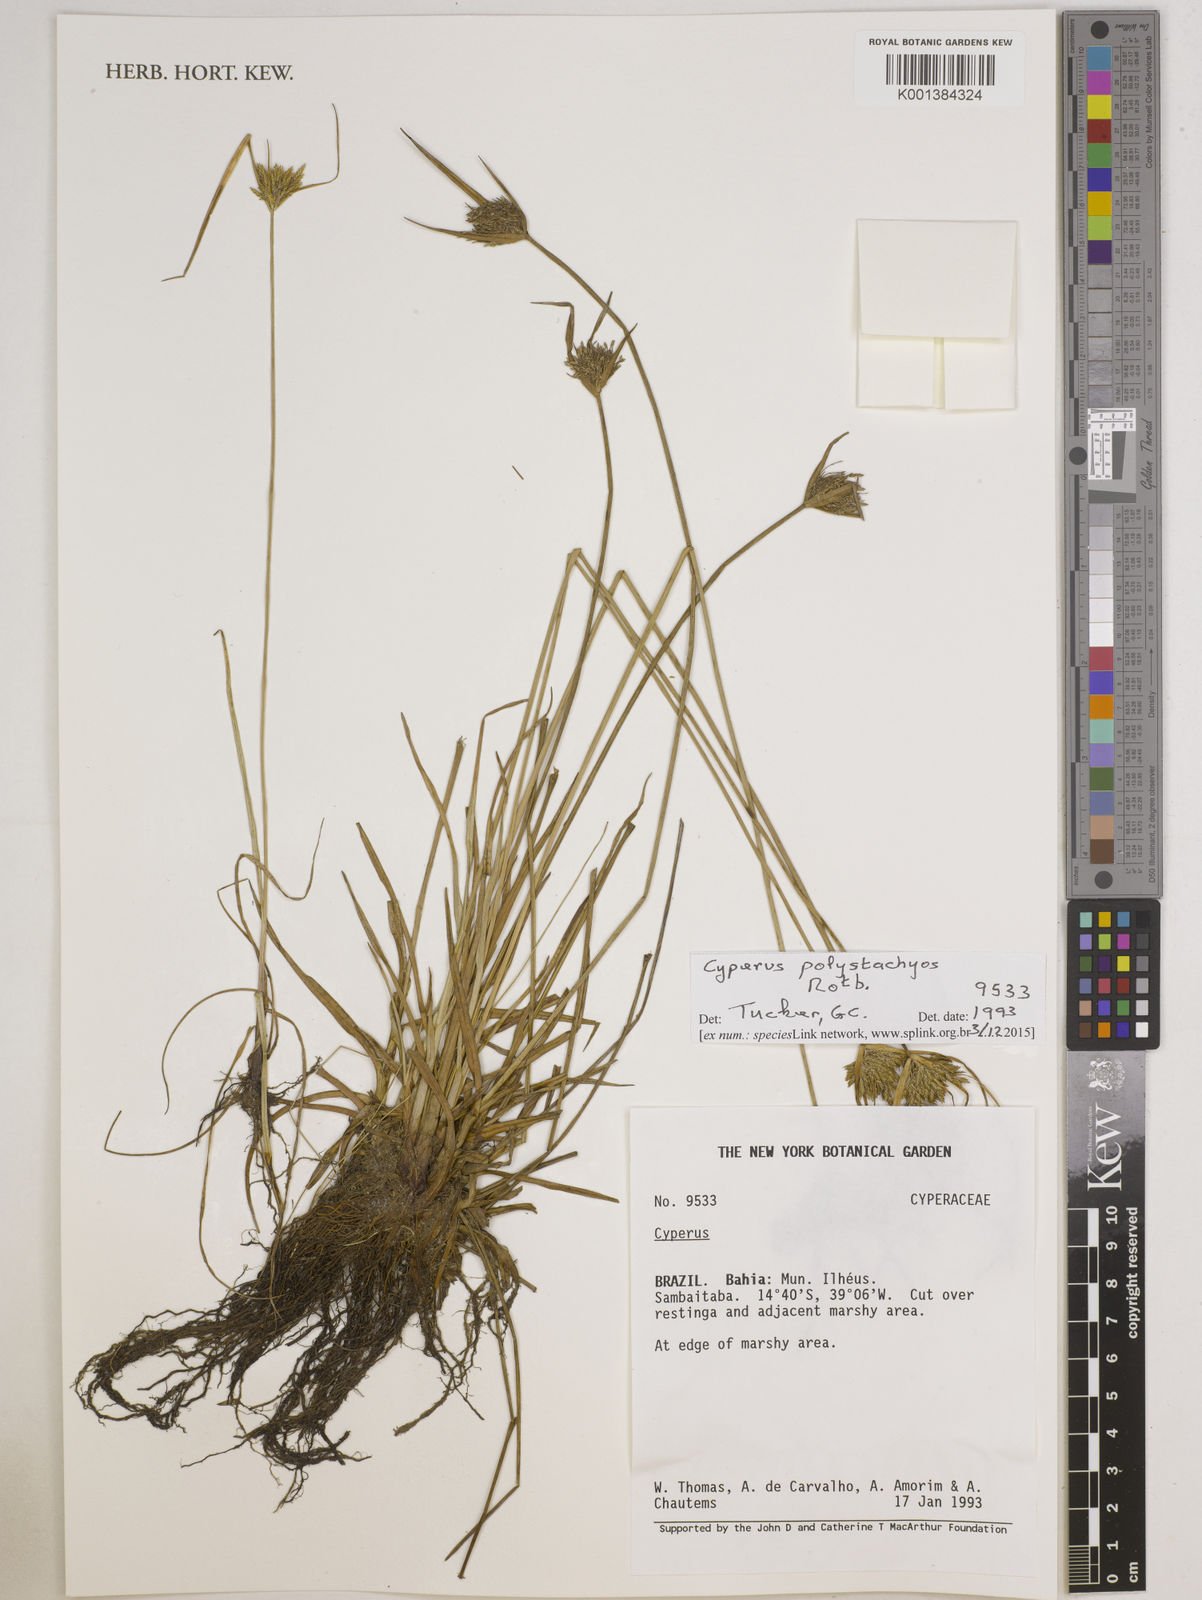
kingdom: Plantae
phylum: Tracheophyta
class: Liliopsida
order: Poales
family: Cyperaceae
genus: Cyperus
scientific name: Cyperus polystachyos
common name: Bunchy flat sedge
